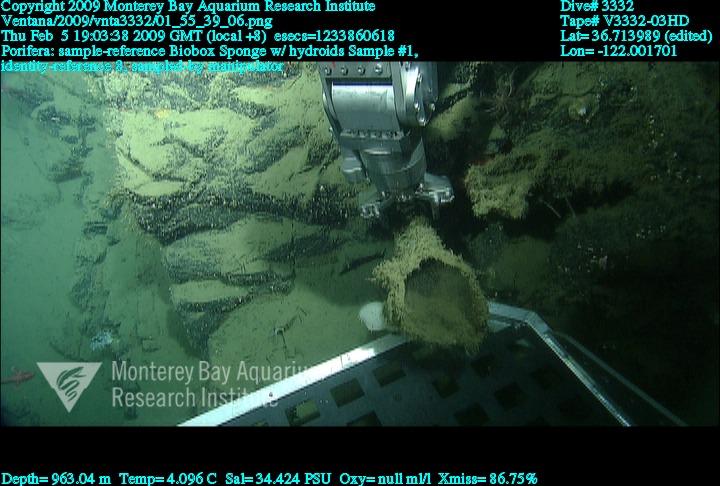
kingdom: Animalia
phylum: Porifera
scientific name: Porifera
